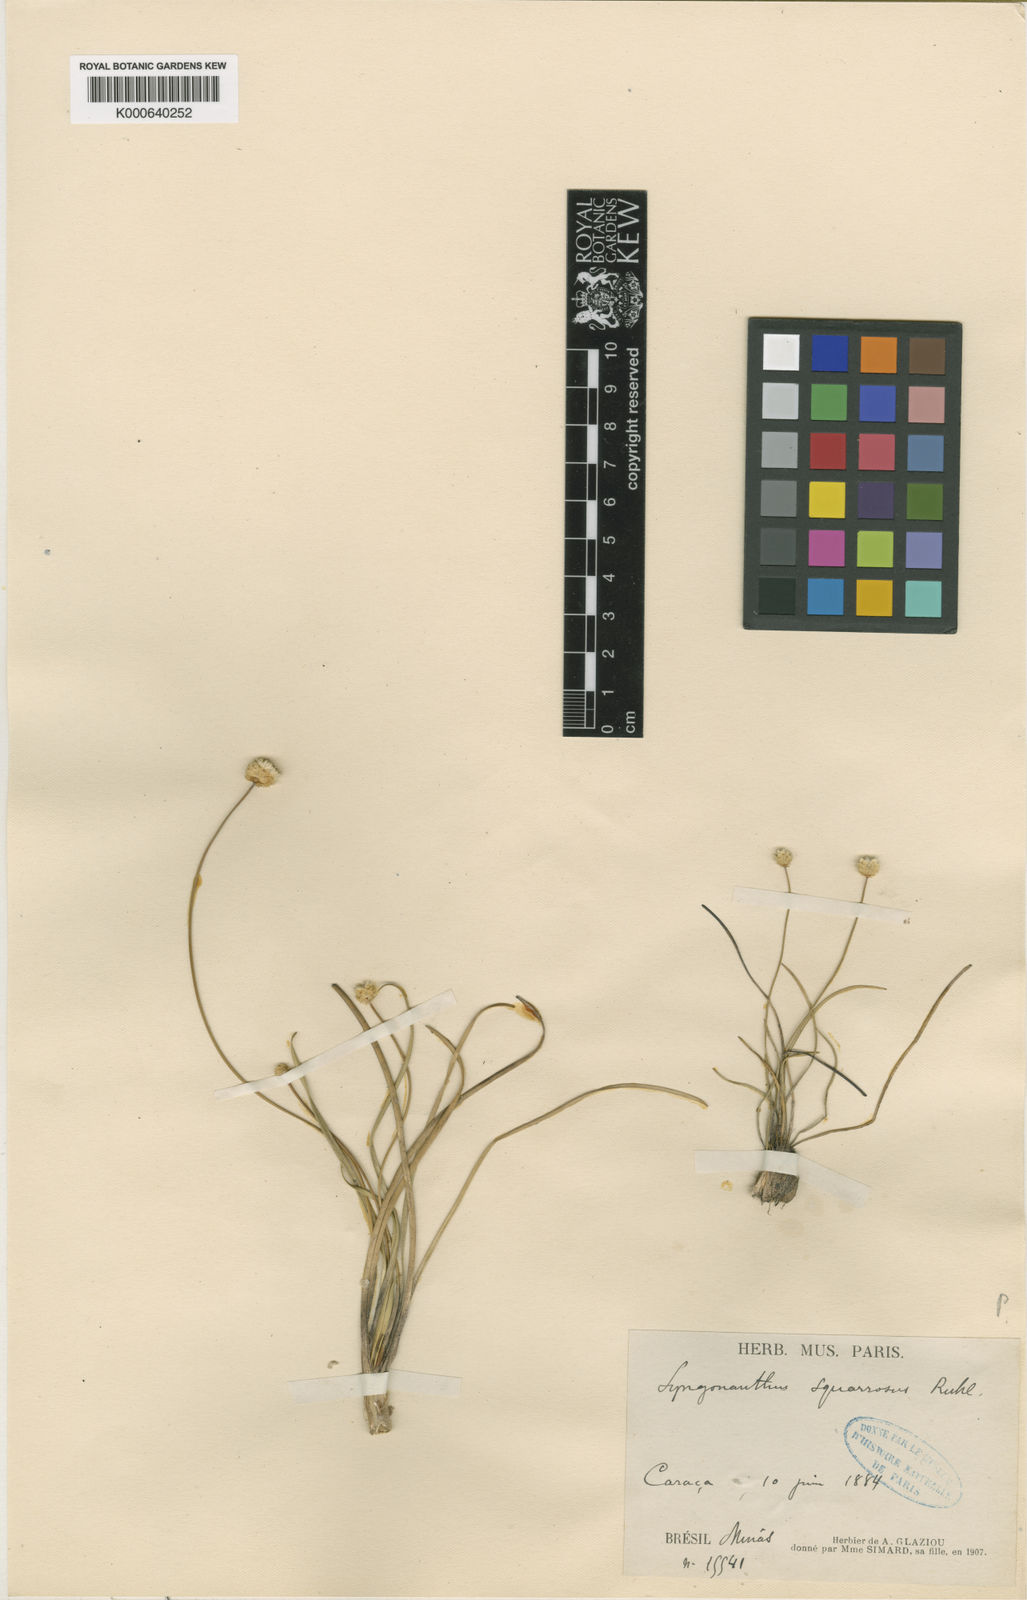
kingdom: Plantae
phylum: Tracheophyta
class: Liliopsida
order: Poales
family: Eriocaulaceae
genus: Comanthera
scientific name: Comanthera
